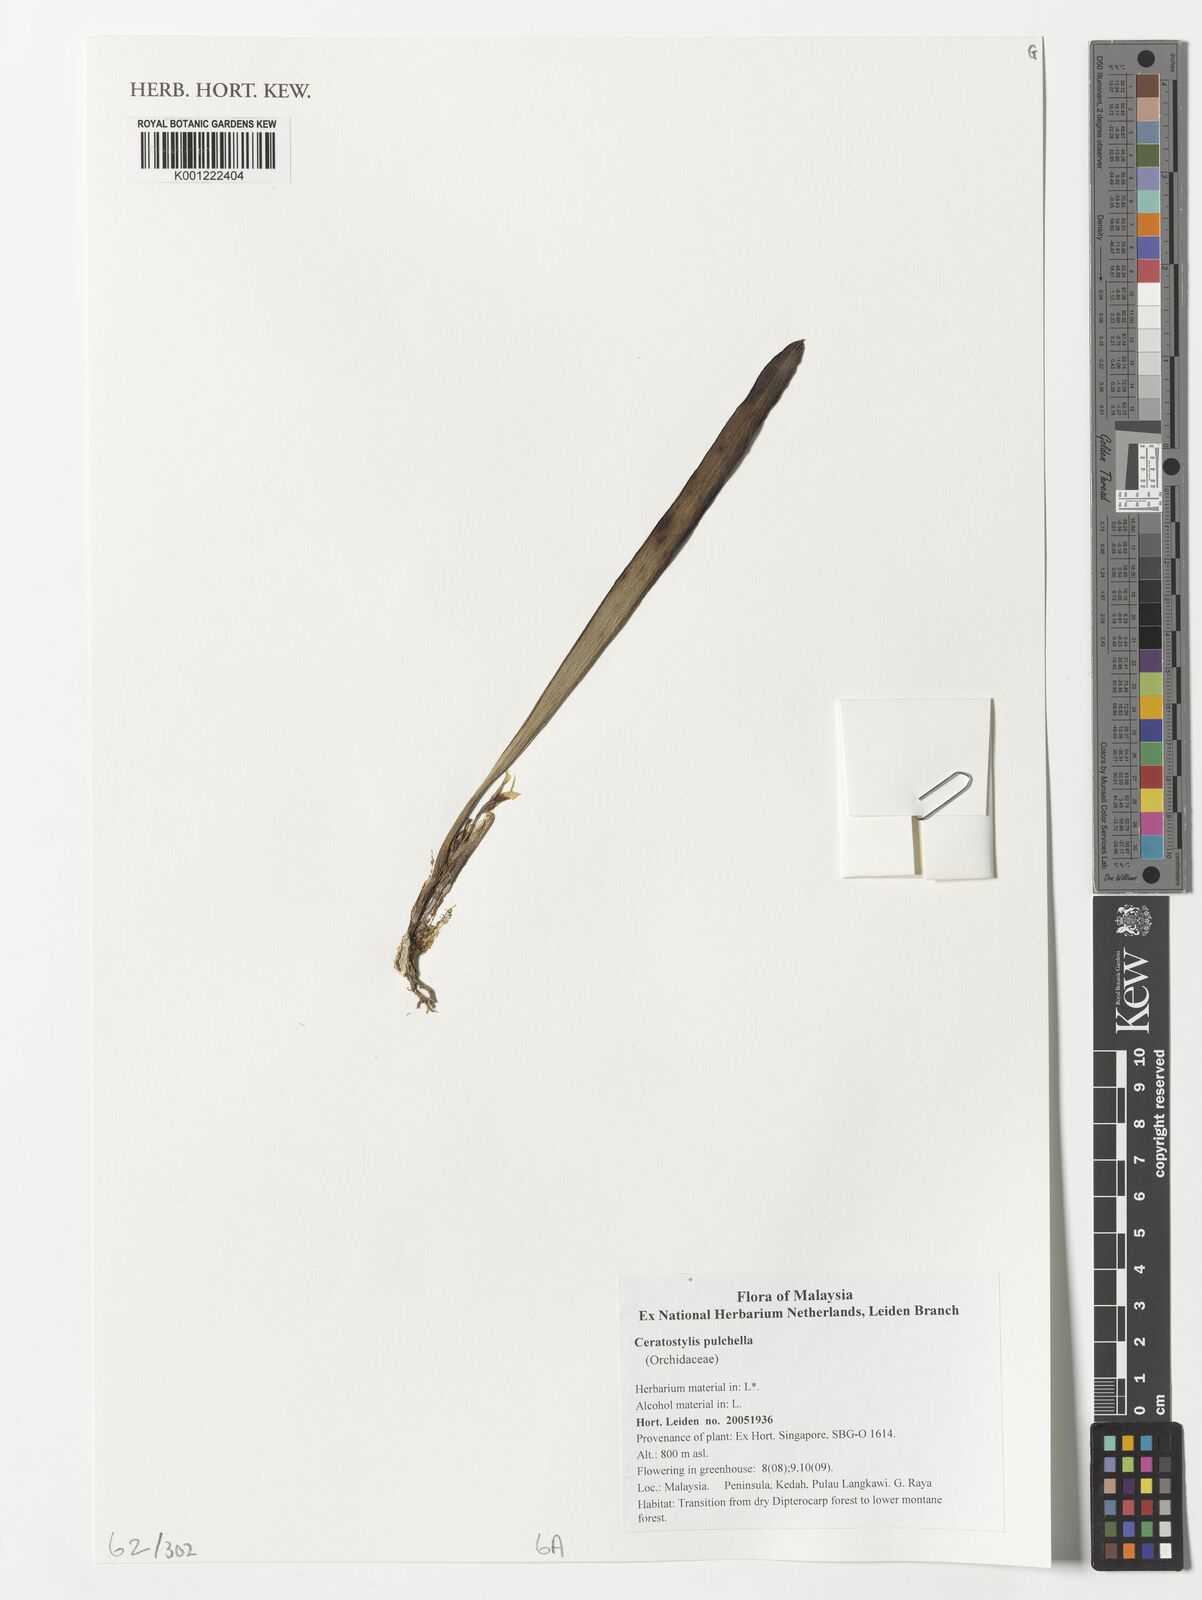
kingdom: Plantae
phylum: Tracheophyta
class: Liliopsida
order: Asparagales
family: Orchidaceae
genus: Ceratostylis
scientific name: Ceratostylis pulchella
